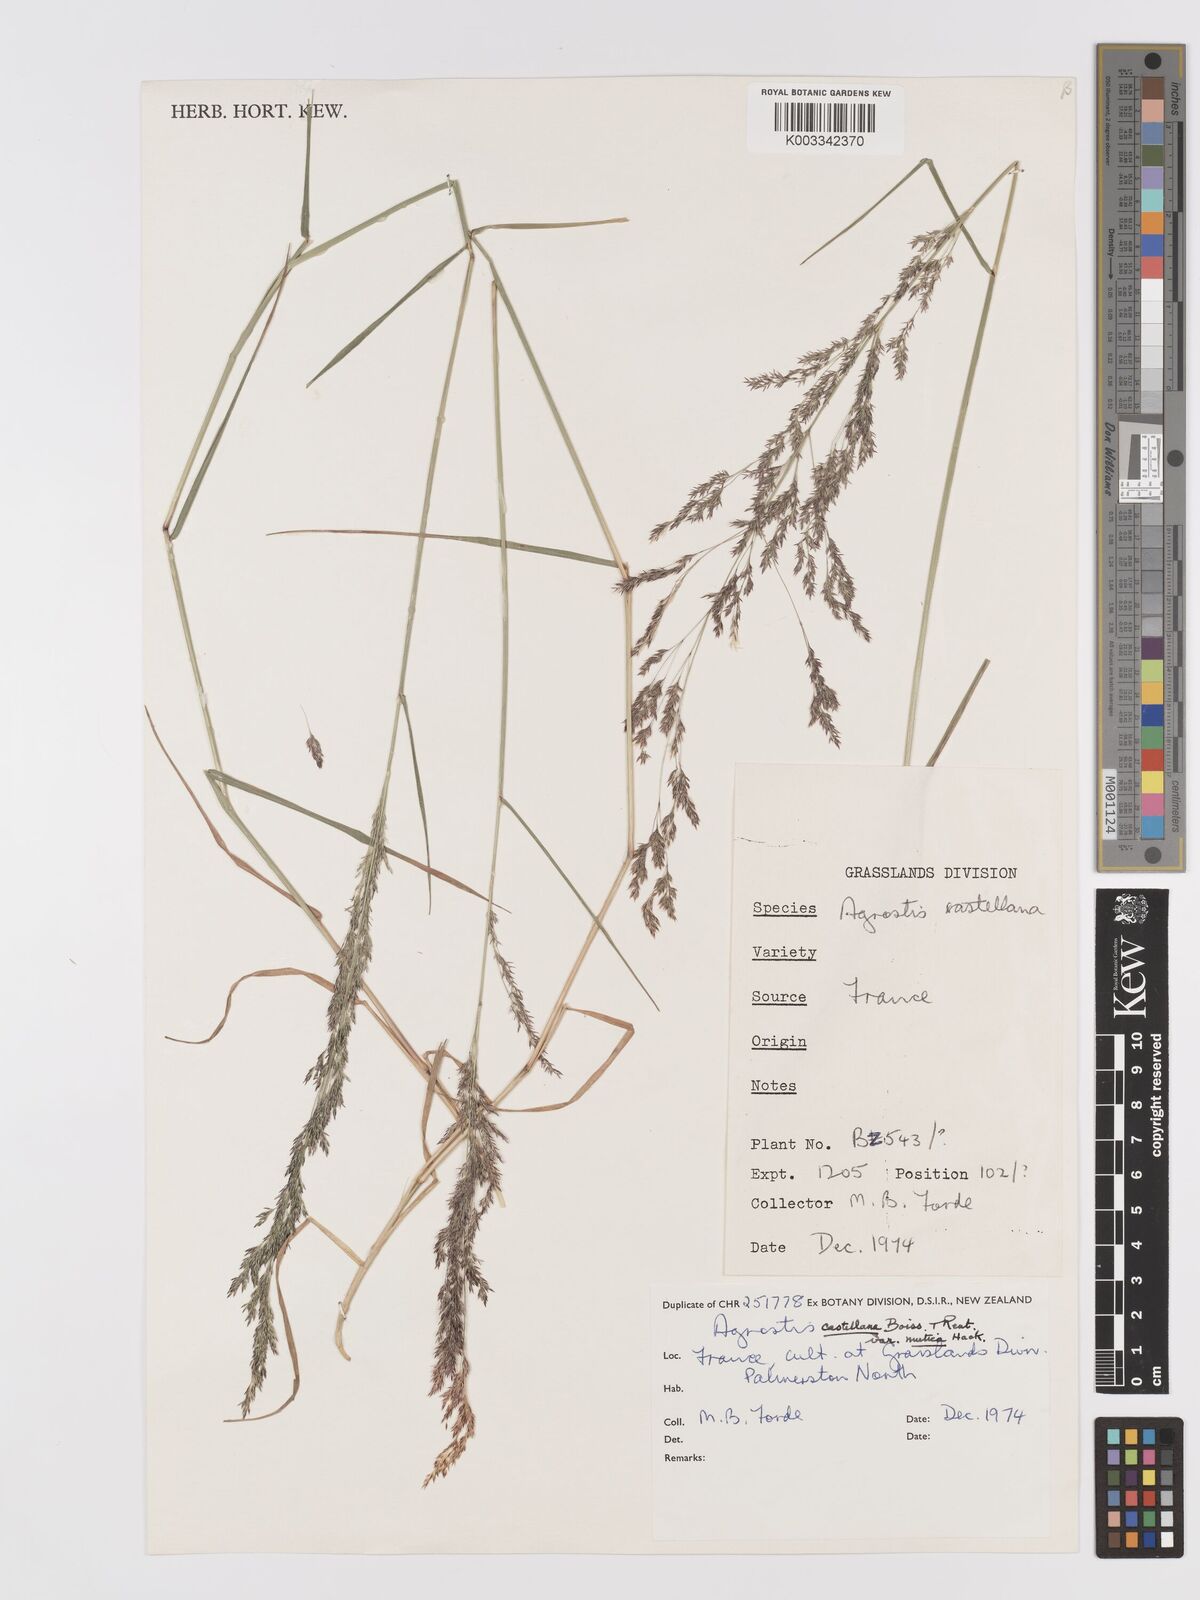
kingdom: Plantae
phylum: Tracheophyta
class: Liliopsida
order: Poales
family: Poaceae
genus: Agrostis
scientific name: Agrostis castellana
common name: Highland bent
